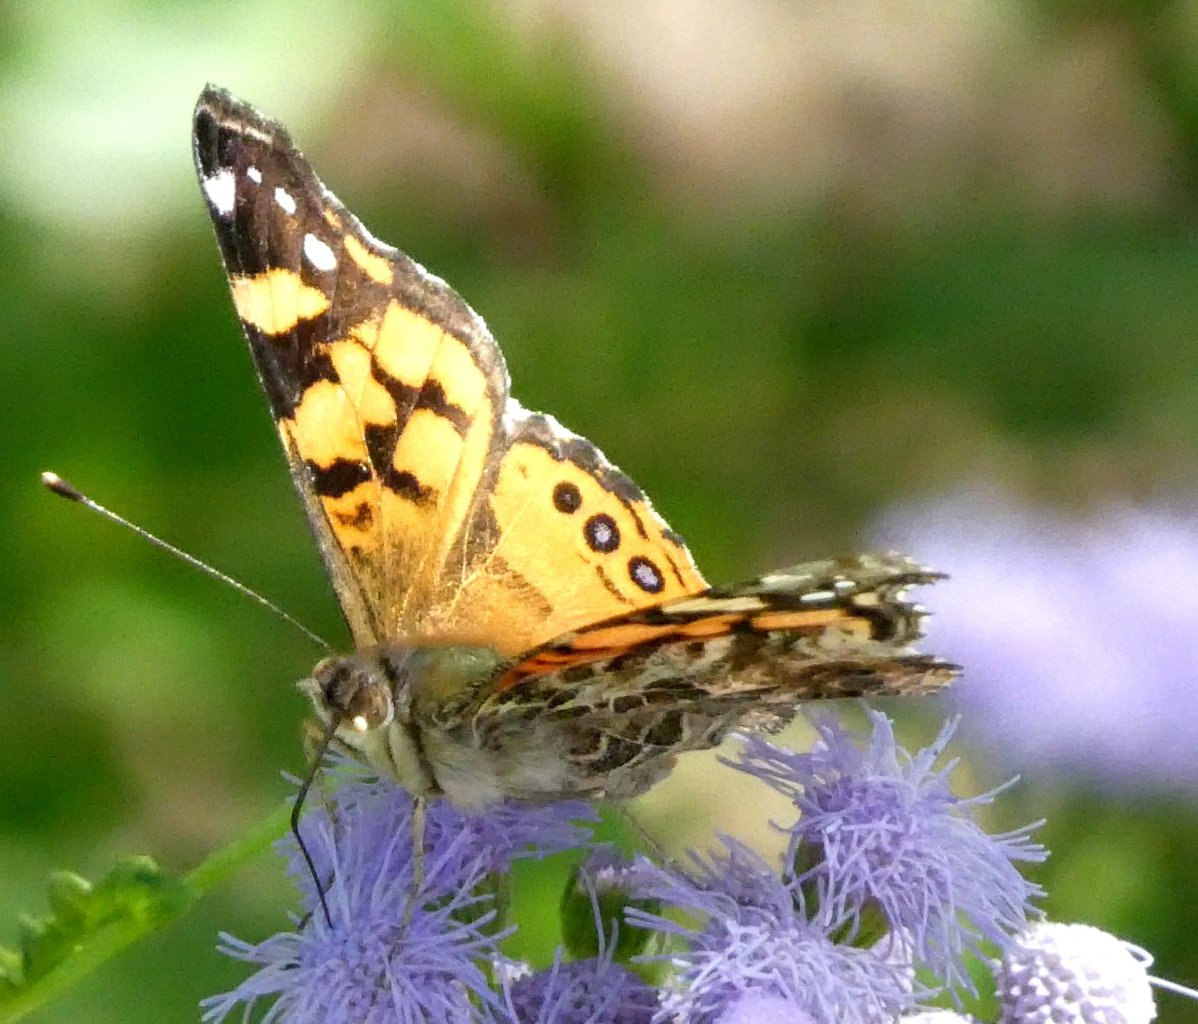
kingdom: Animalia
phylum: Arthropoda
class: Insecta
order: Lepidoptera
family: Nymphalidae
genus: Vanessa
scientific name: Vanessa annabella
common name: West Coast Lady
